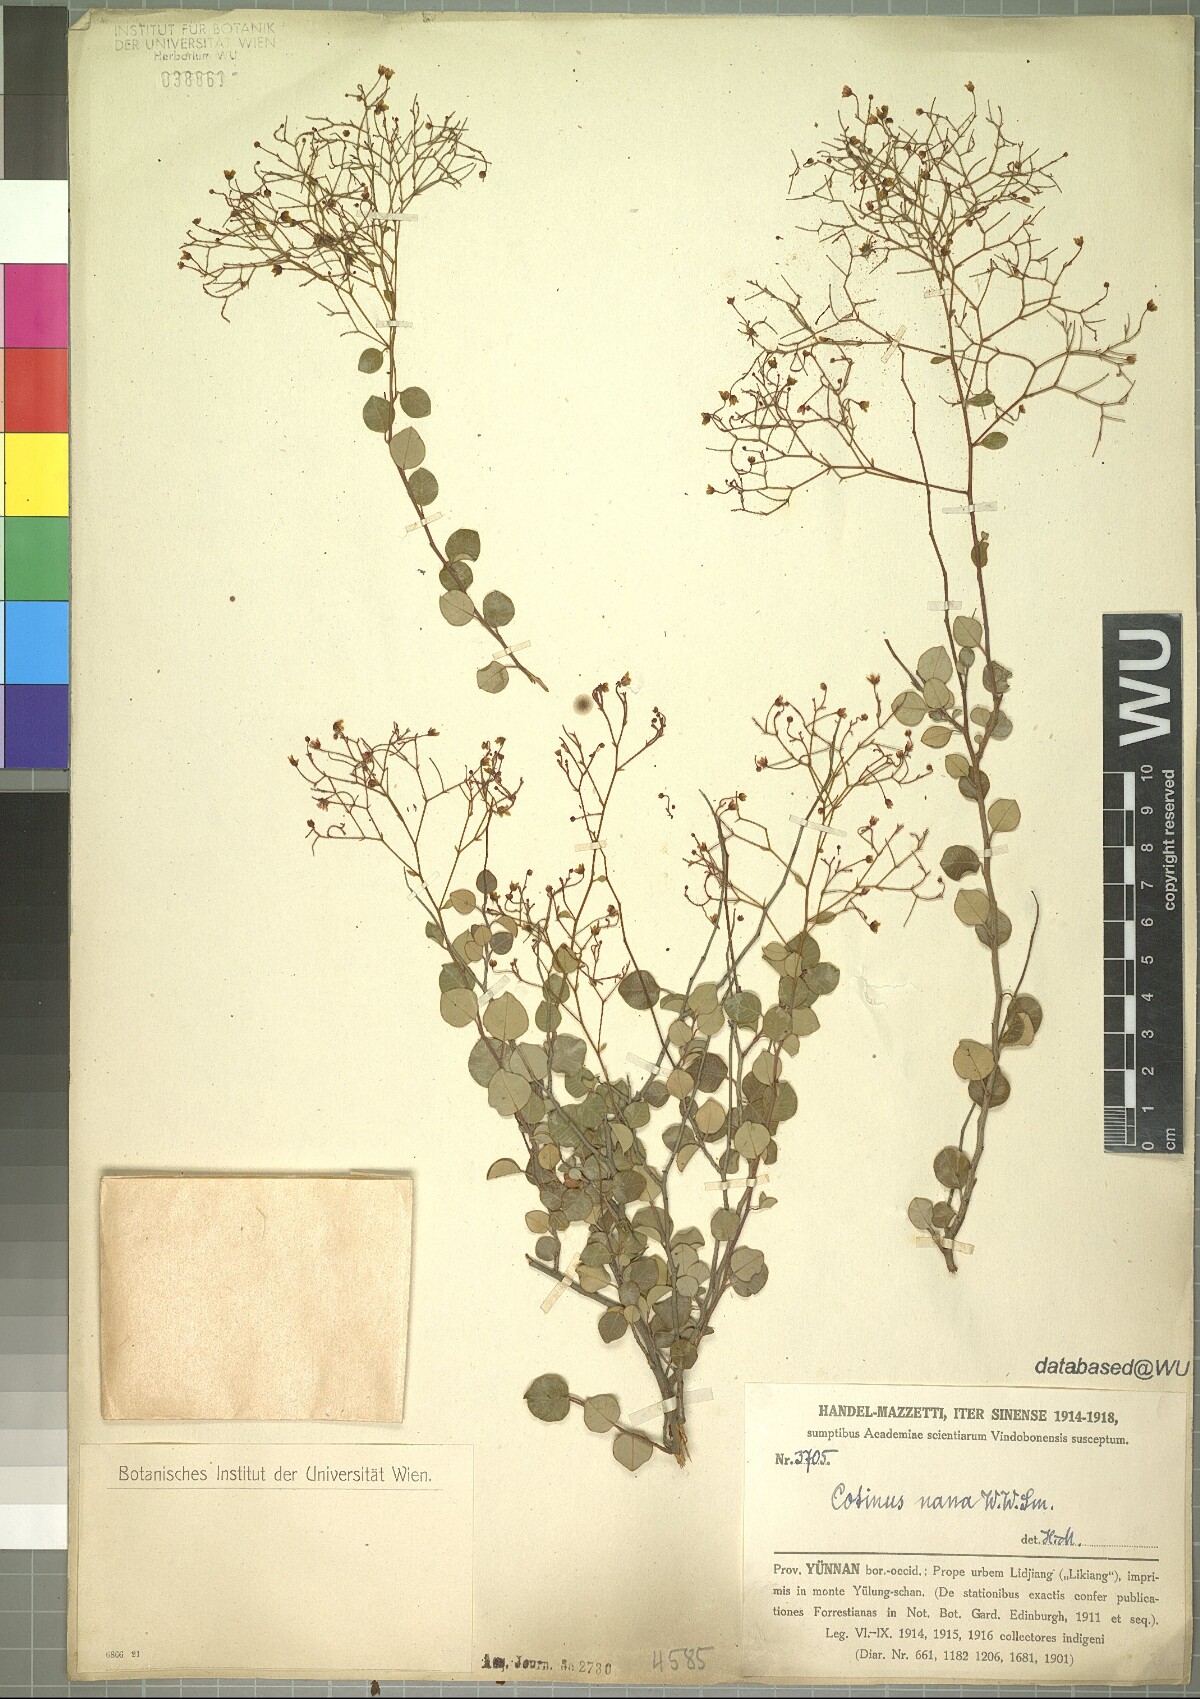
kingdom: Plantae
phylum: Tracheophyta
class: Magnoliopsida
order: Sapindales
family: Anacardiaceae
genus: Cotinus
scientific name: Cotinus nanus
